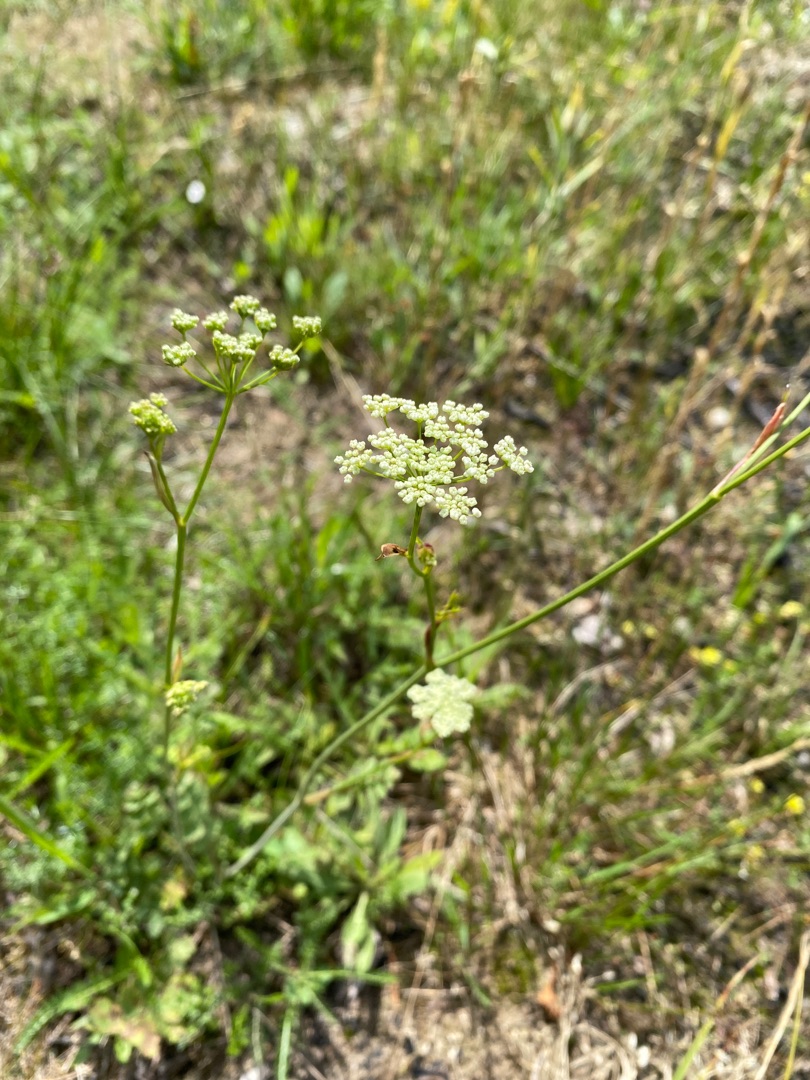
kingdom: Plantae
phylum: Tracheophyta
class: Magnoliopsida
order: Apiales
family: Apiaceae
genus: Pimpinella
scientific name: Pimpinella saxifraga
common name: Almindelig pimpinelle
